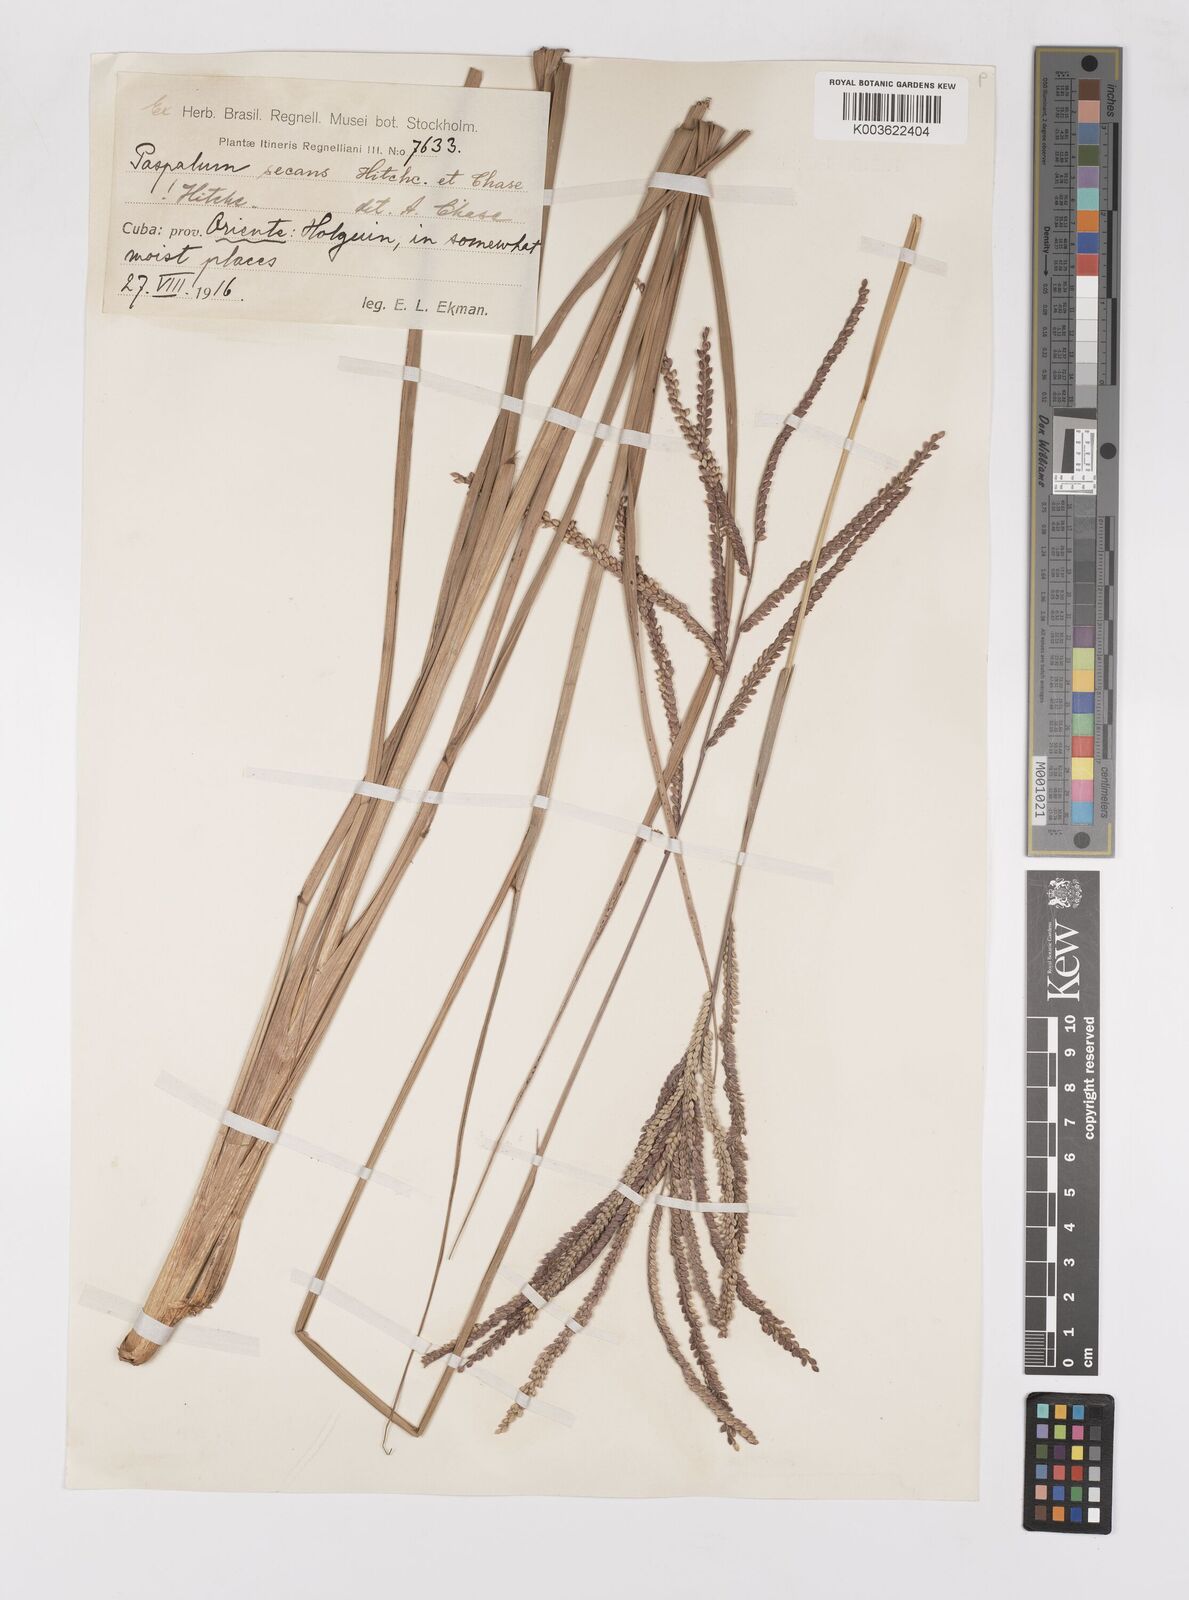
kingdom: Plantae
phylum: Tracheophyta
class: Liliopsida
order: Poales
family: Poaceae
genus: Paspalum
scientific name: Paspalum arundinaceum
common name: Thick ditch crowngrass
